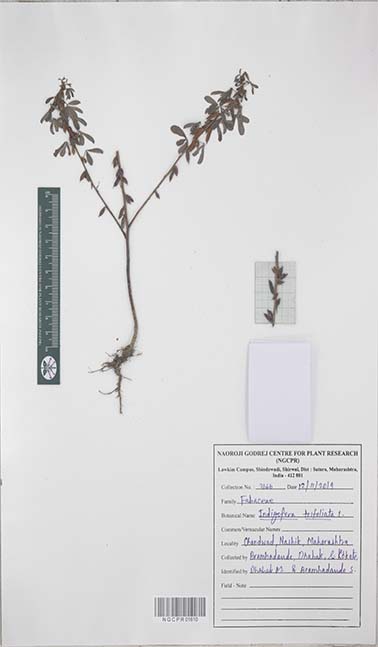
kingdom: Plantae
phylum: Tracheophyta
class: Magnoliopsida
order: Fabales
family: Fabaceae
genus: Indigofera
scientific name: Indigofera trifoliata
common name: Threeleaf indigo
